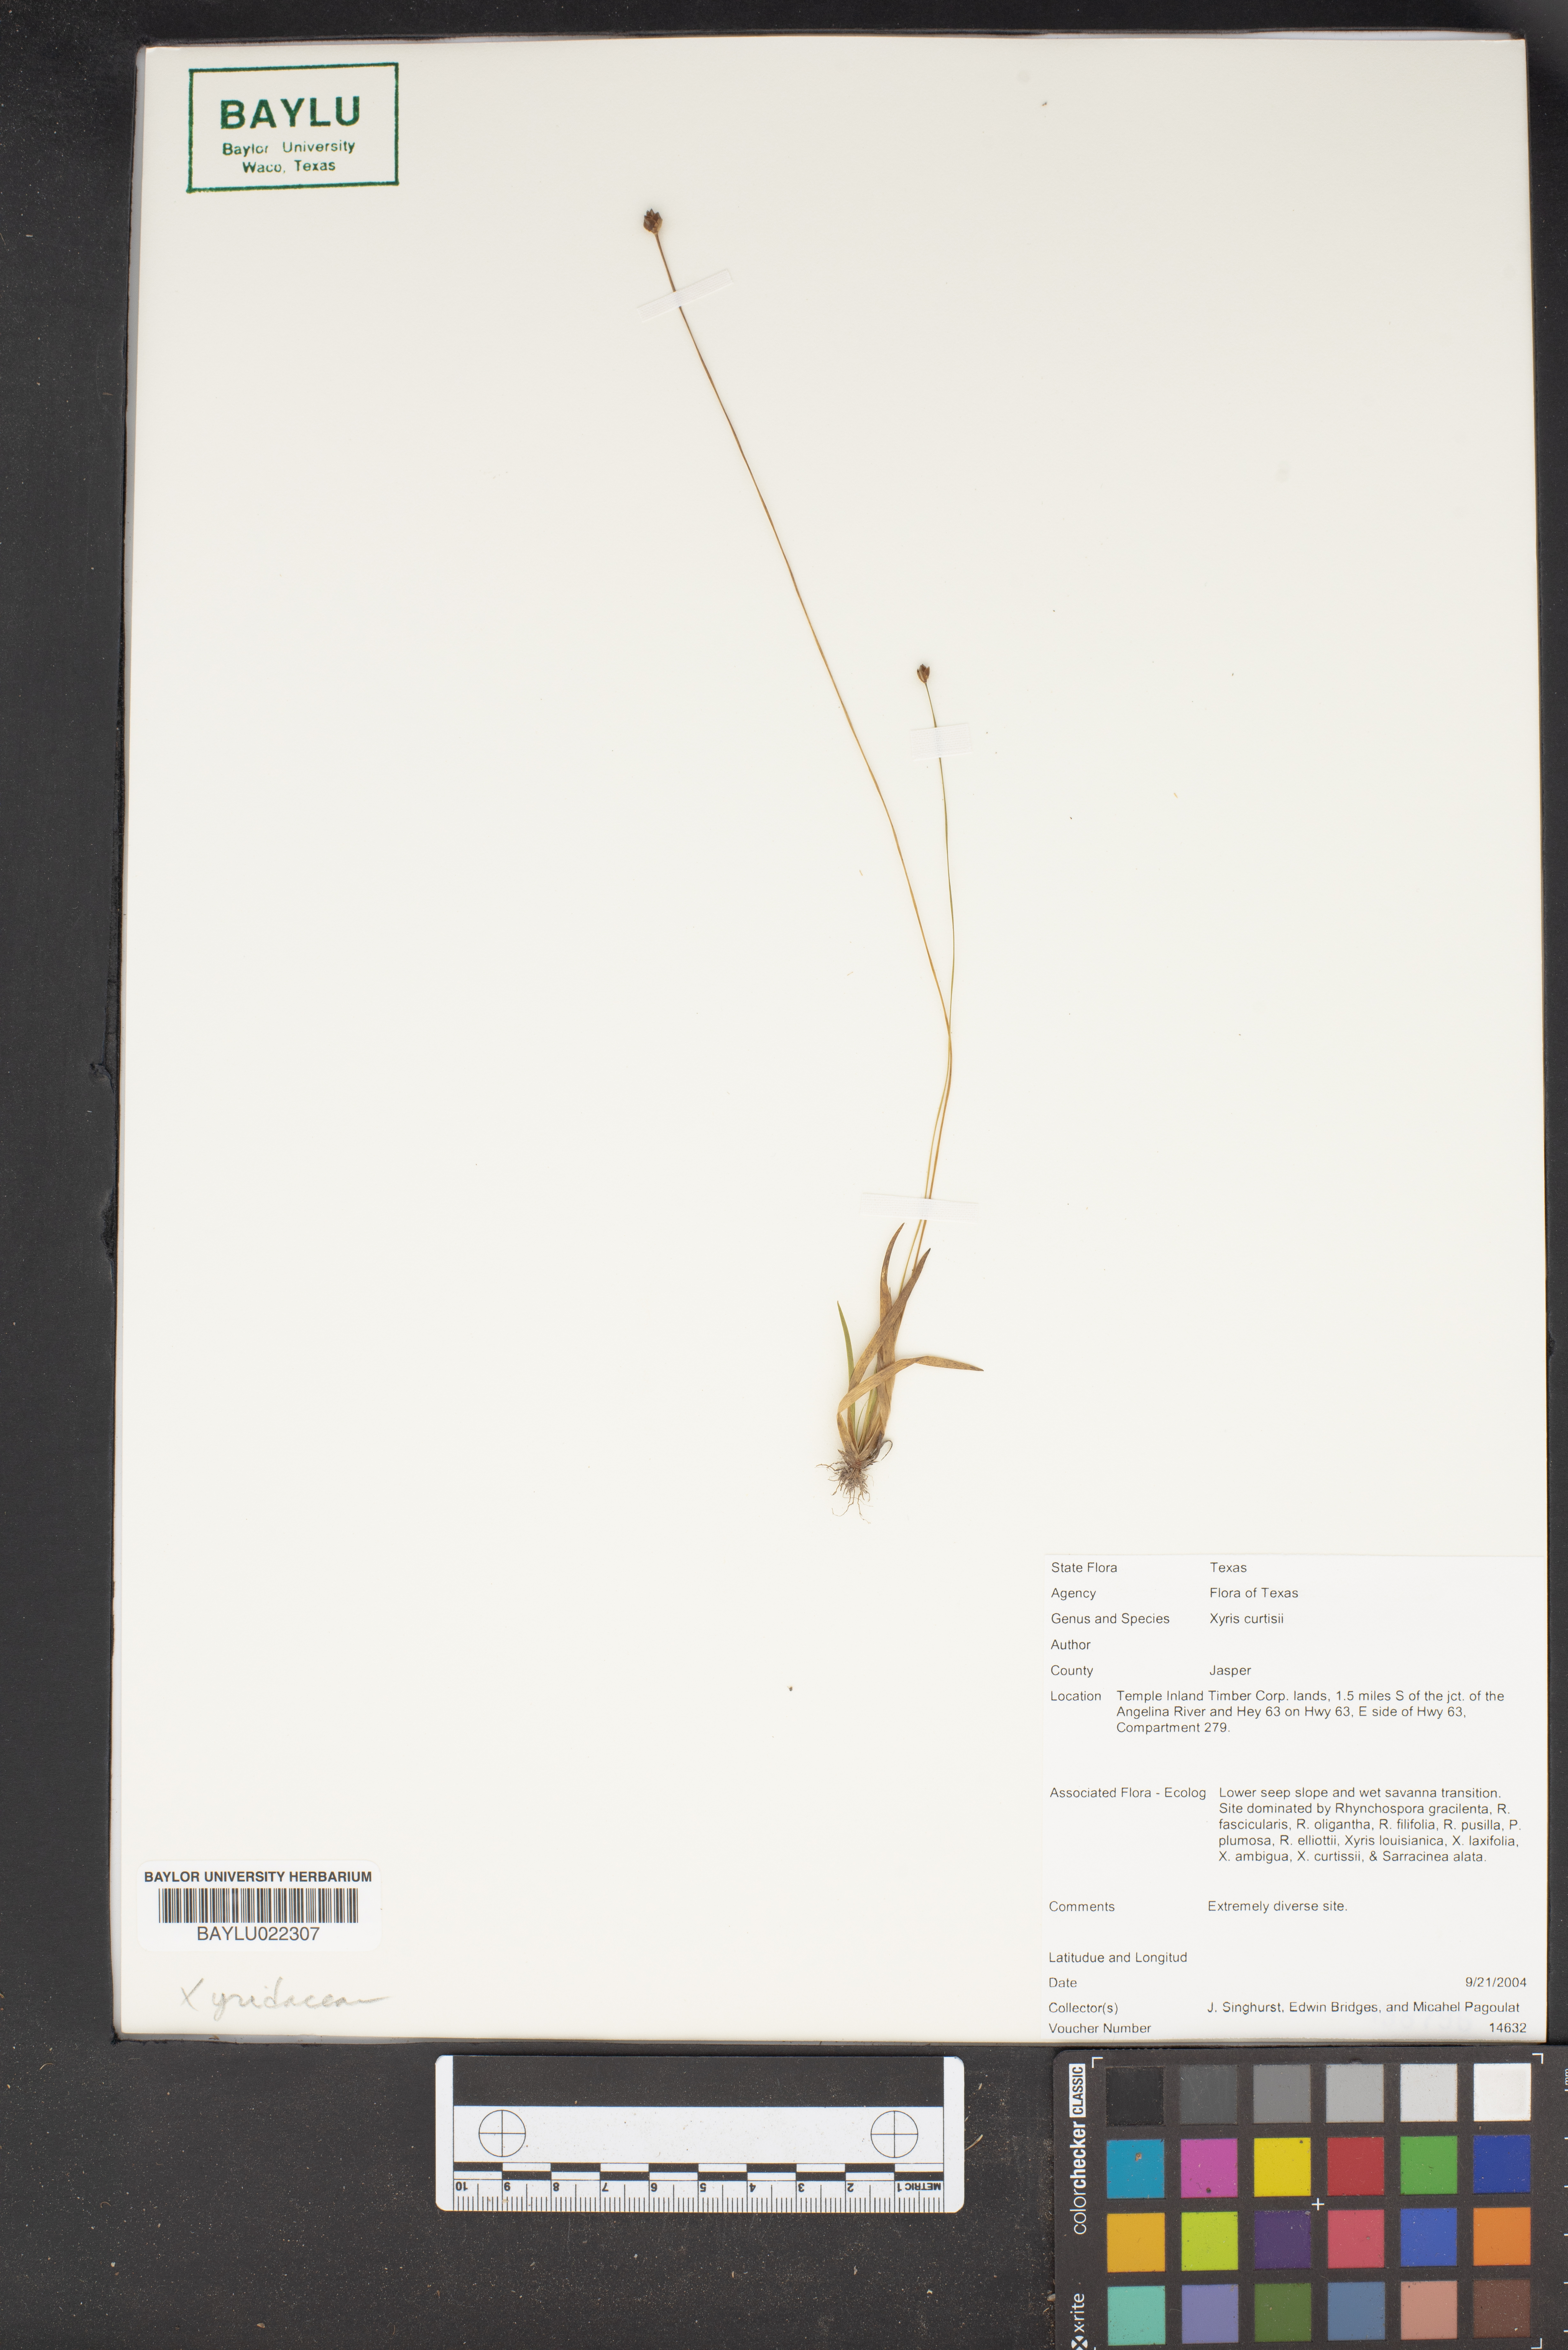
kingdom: Plantae
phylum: Tracheophyta
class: Liliopsida
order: Poales
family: Xyridaceae
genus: Xyris
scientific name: Xyris difformis
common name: Bog yellow-eyed-grass
